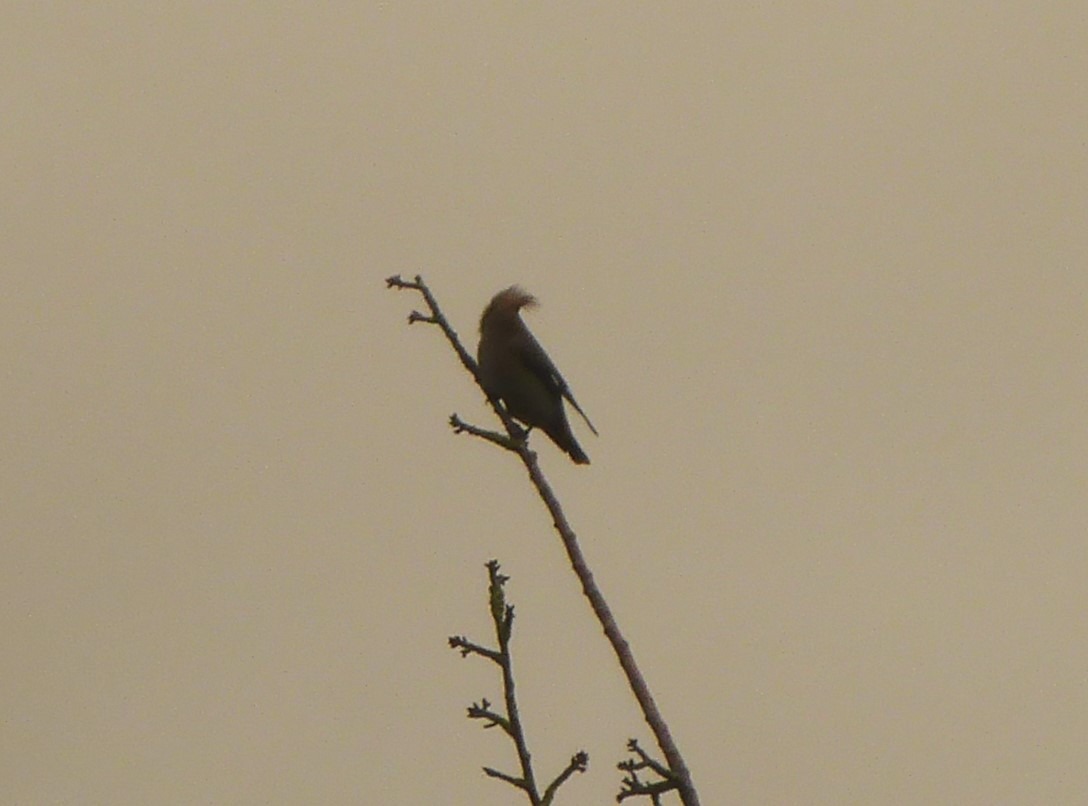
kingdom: Animalia
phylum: Chordata
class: Aves
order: Passeriformes
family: Bombycillidae
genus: Bombycilla
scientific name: Bombycilla garrulus
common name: Silkehale
